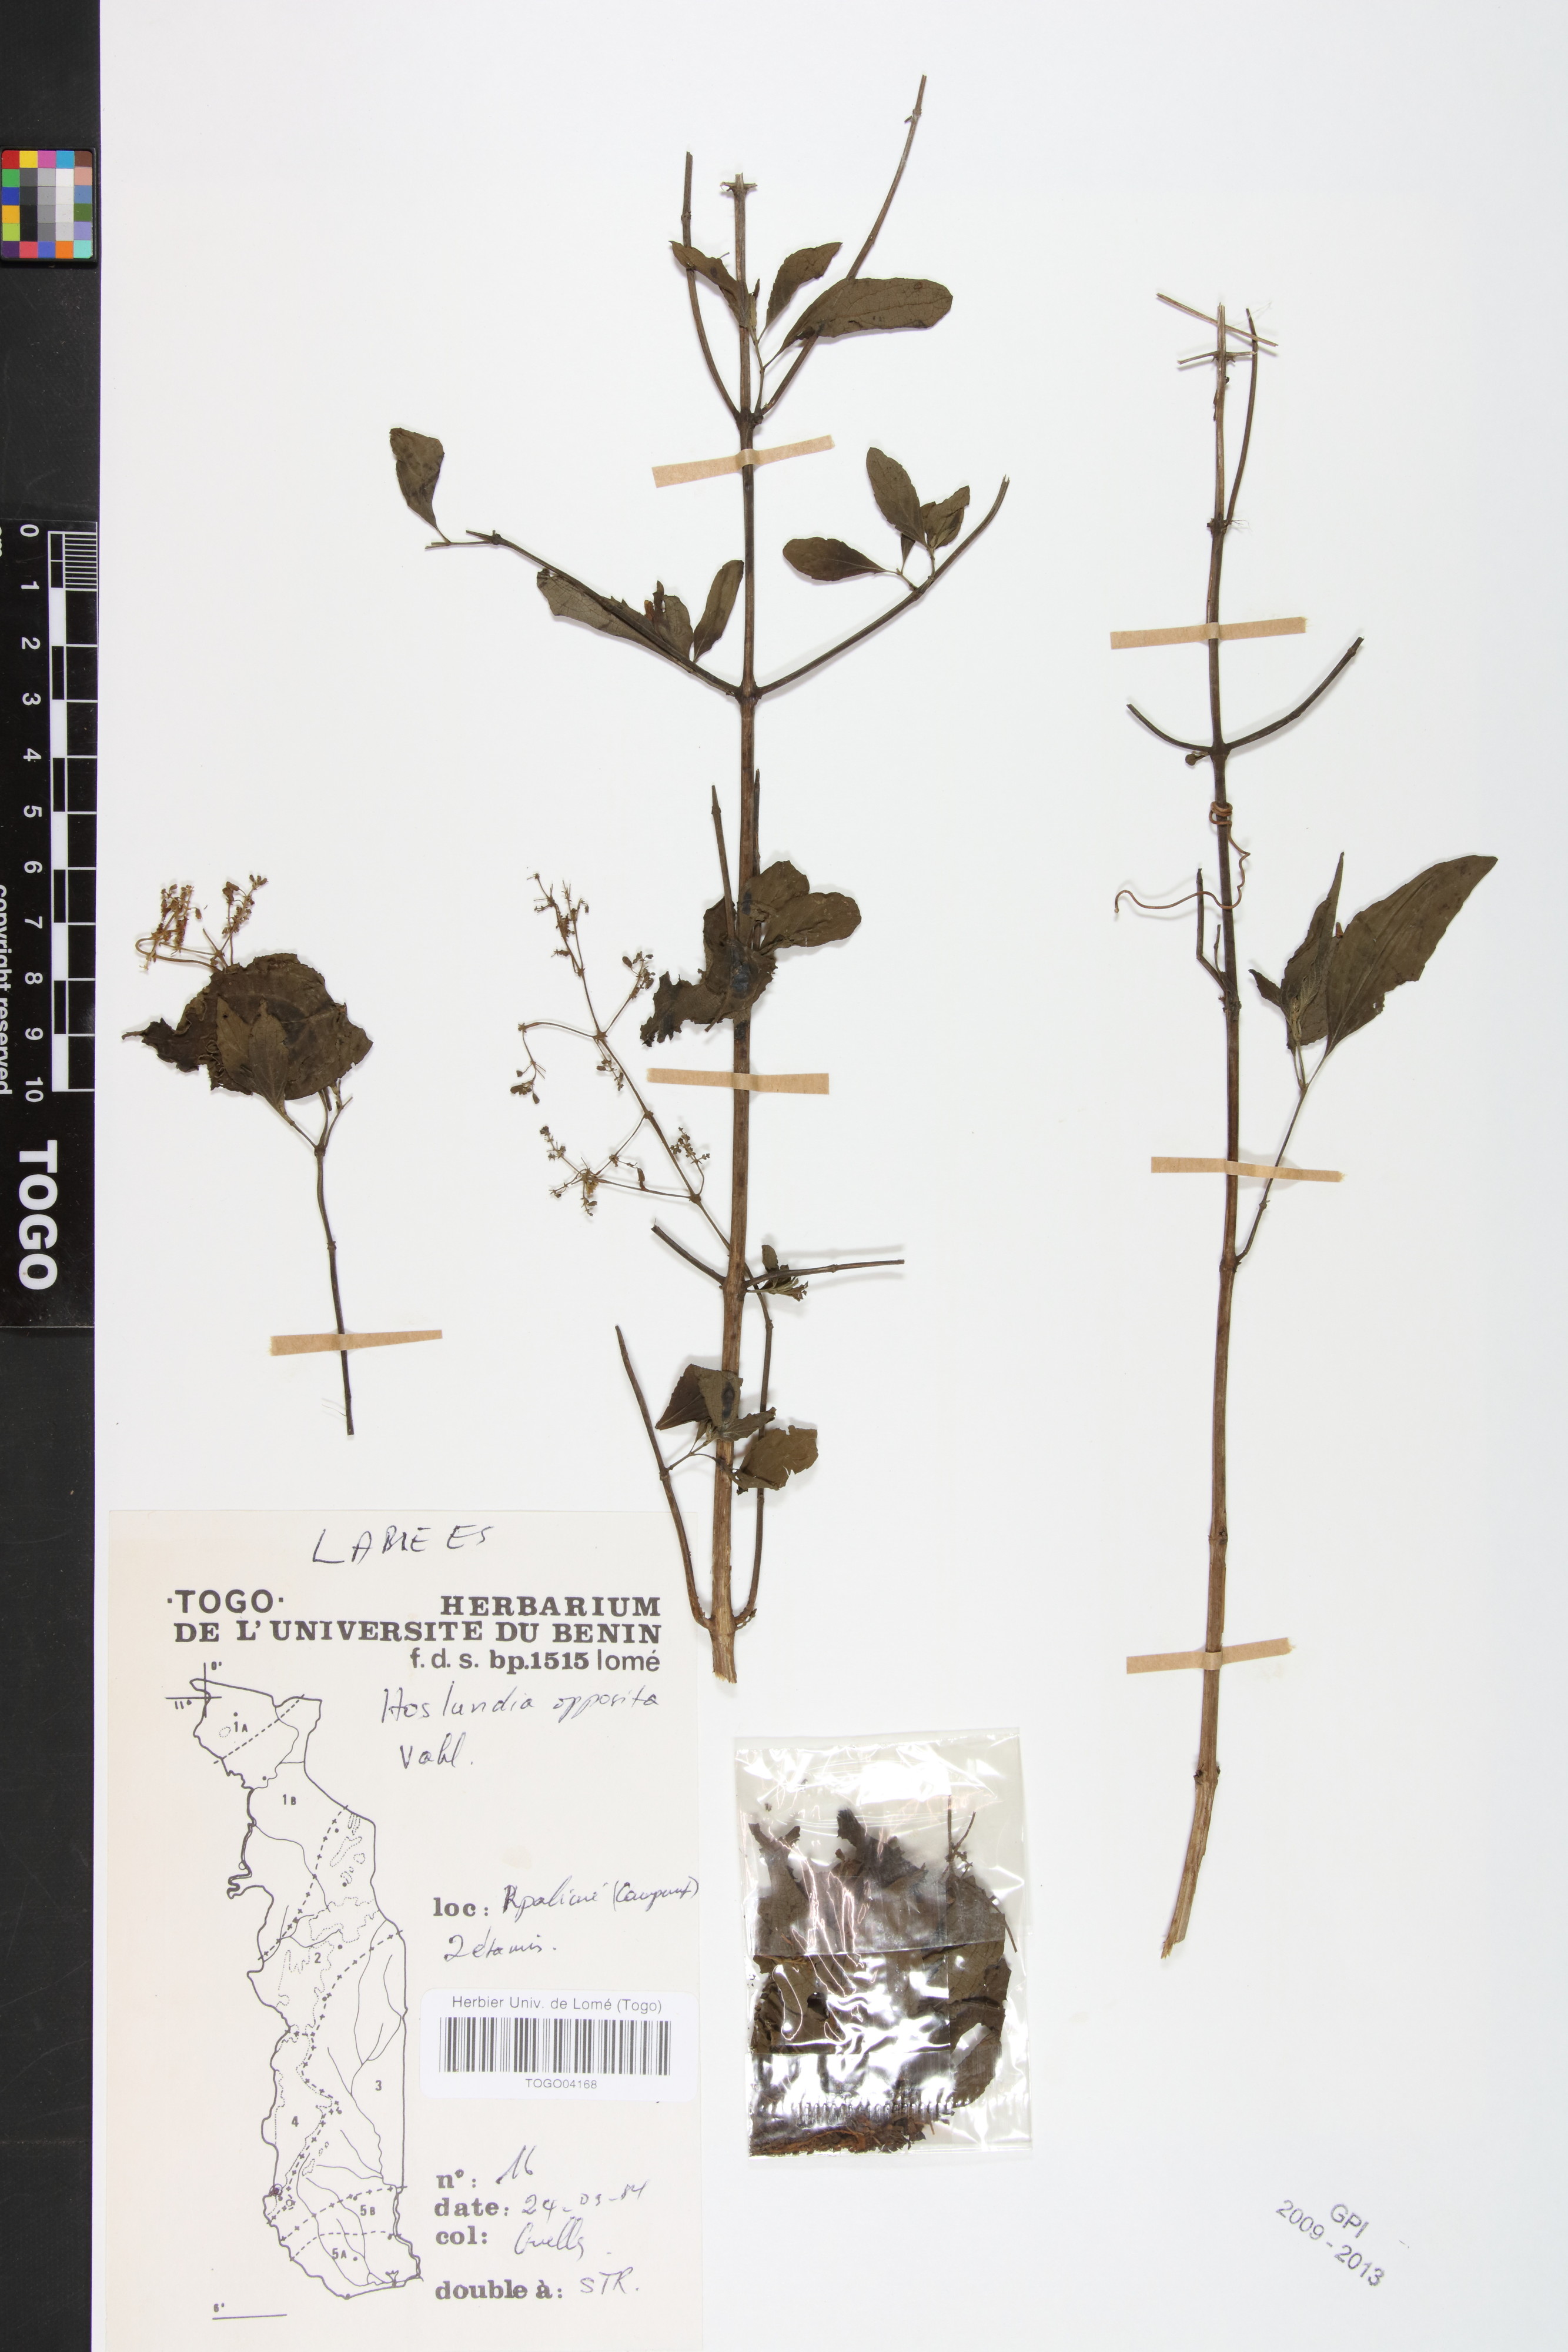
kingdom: Plantae
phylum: Tracheophyta
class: Magnoliopsida
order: Lamiales
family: Lamiaceae
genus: Hoslundia
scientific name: Hoslundia opposita
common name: Kamyuye
